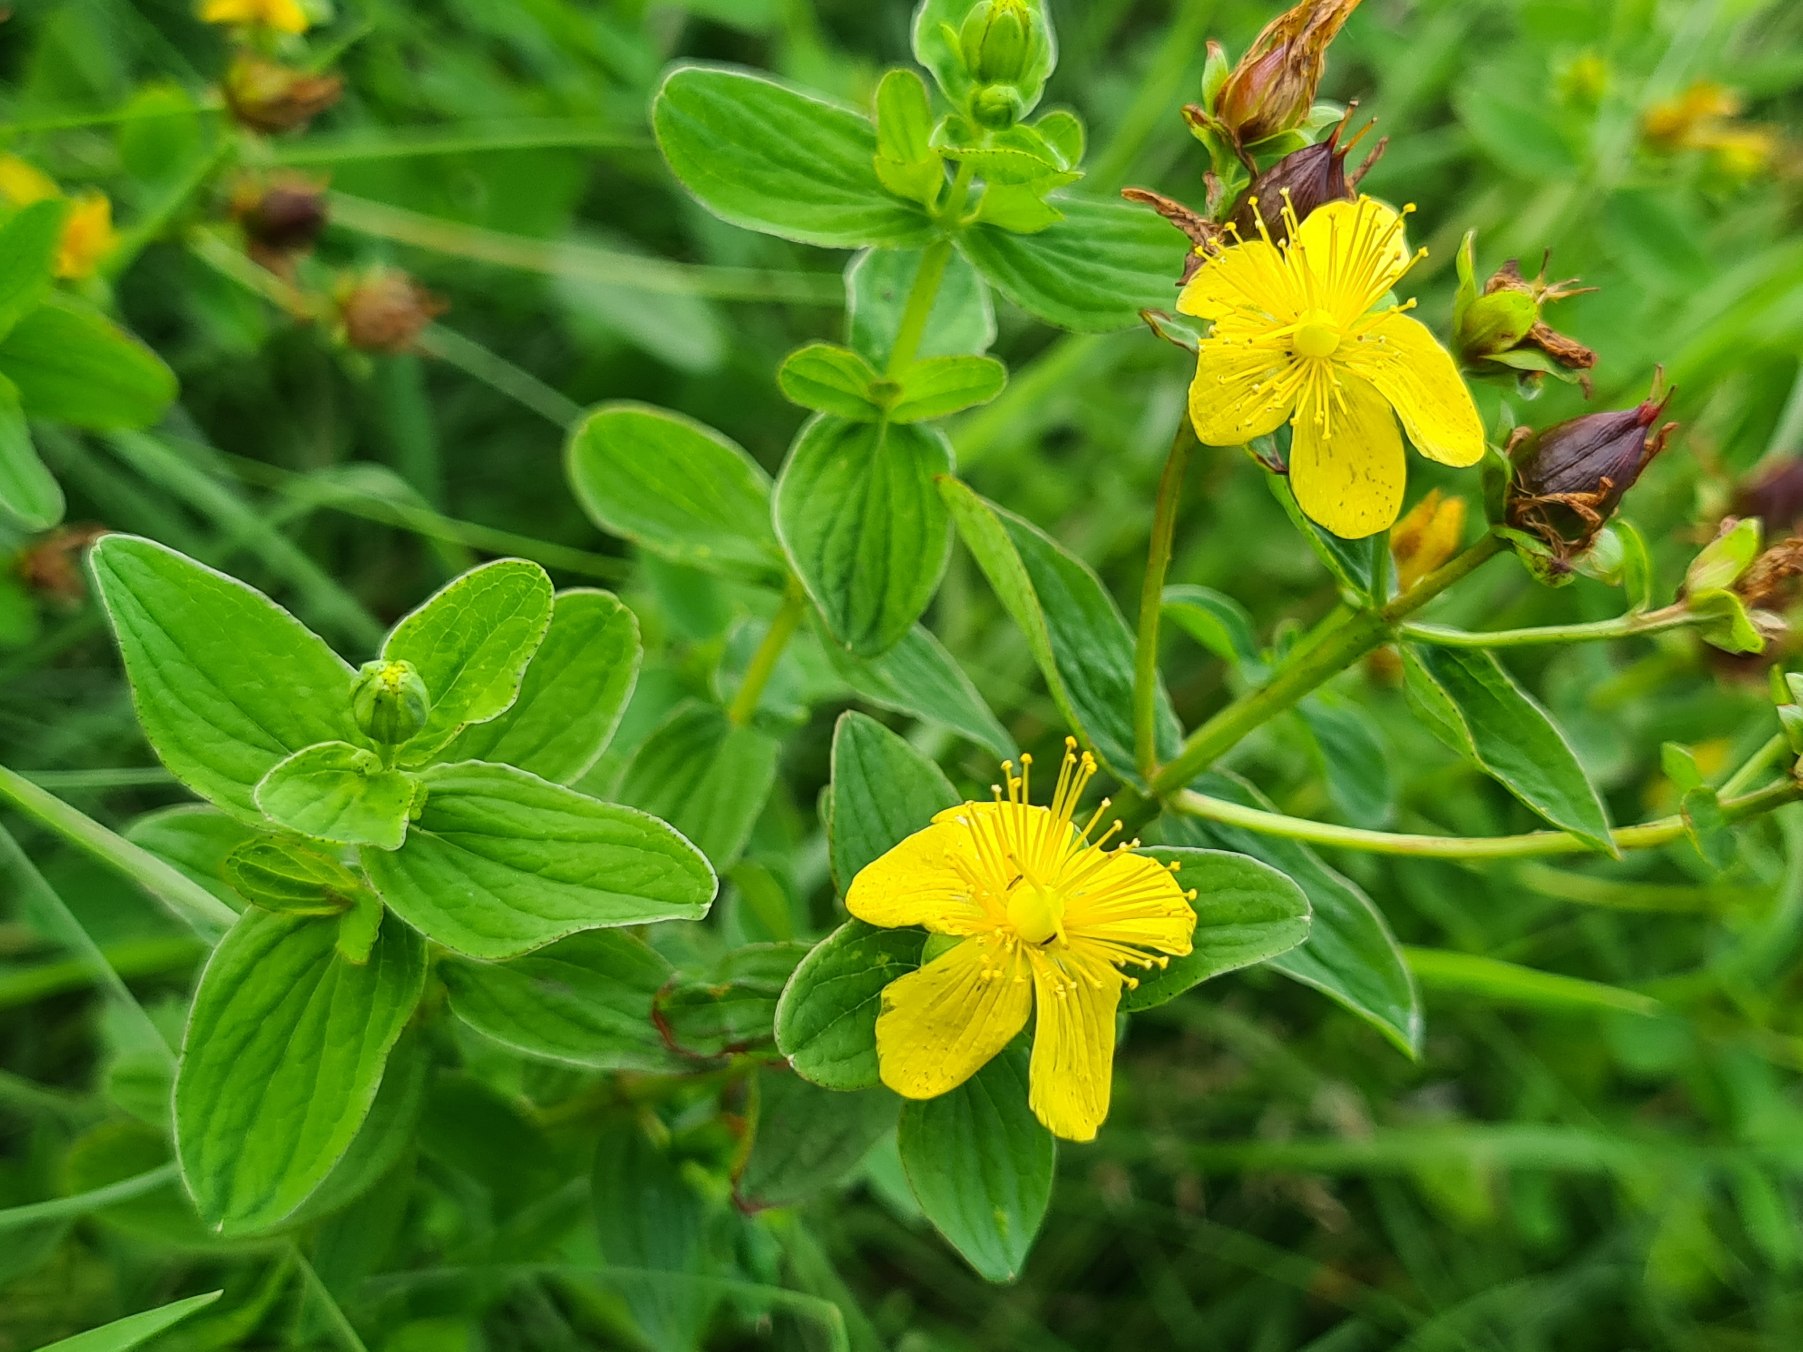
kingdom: Plantae
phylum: Tracheophyta
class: Magnoliopsida
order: Malpighiales
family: Hypericaceae
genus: Hypericum
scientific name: Hypericum maculatum
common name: Kantet perikon
